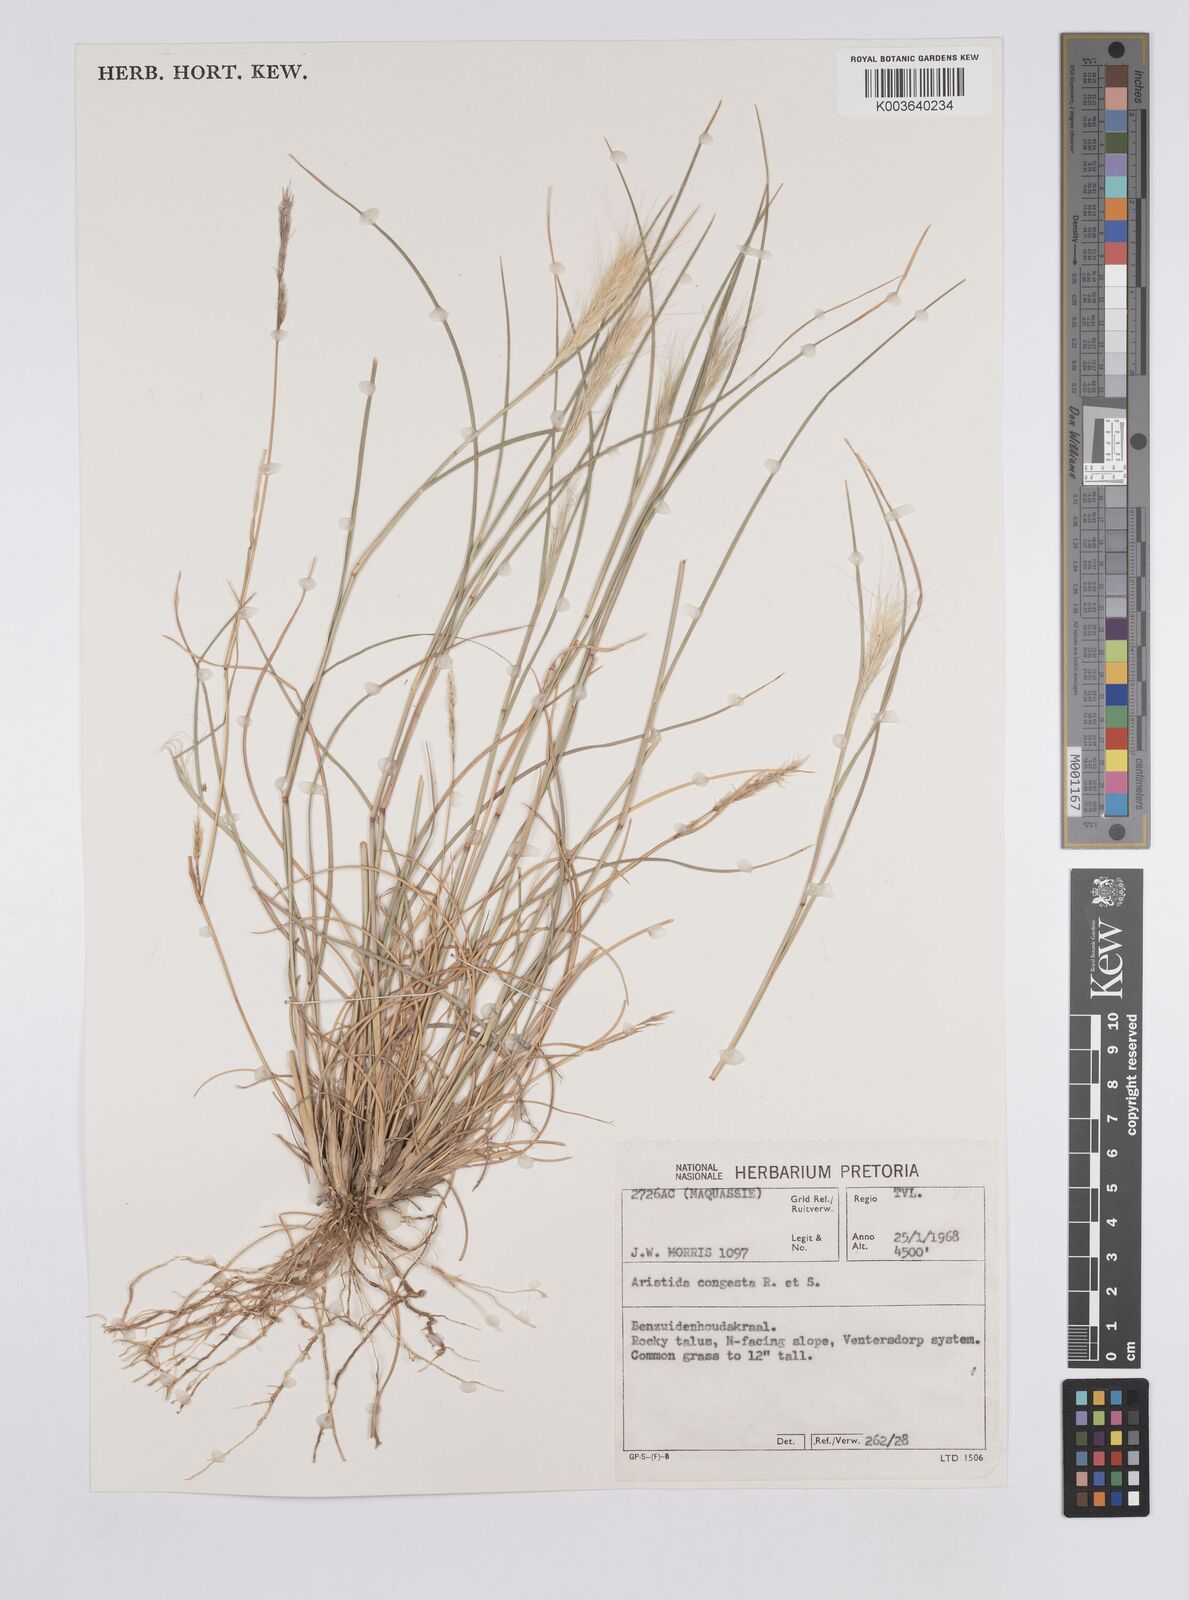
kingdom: Plantae
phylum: Tracheophyta
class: Liliopsida
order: Poales
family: Poaceae
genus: Aristida
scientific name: Aristida congesta
